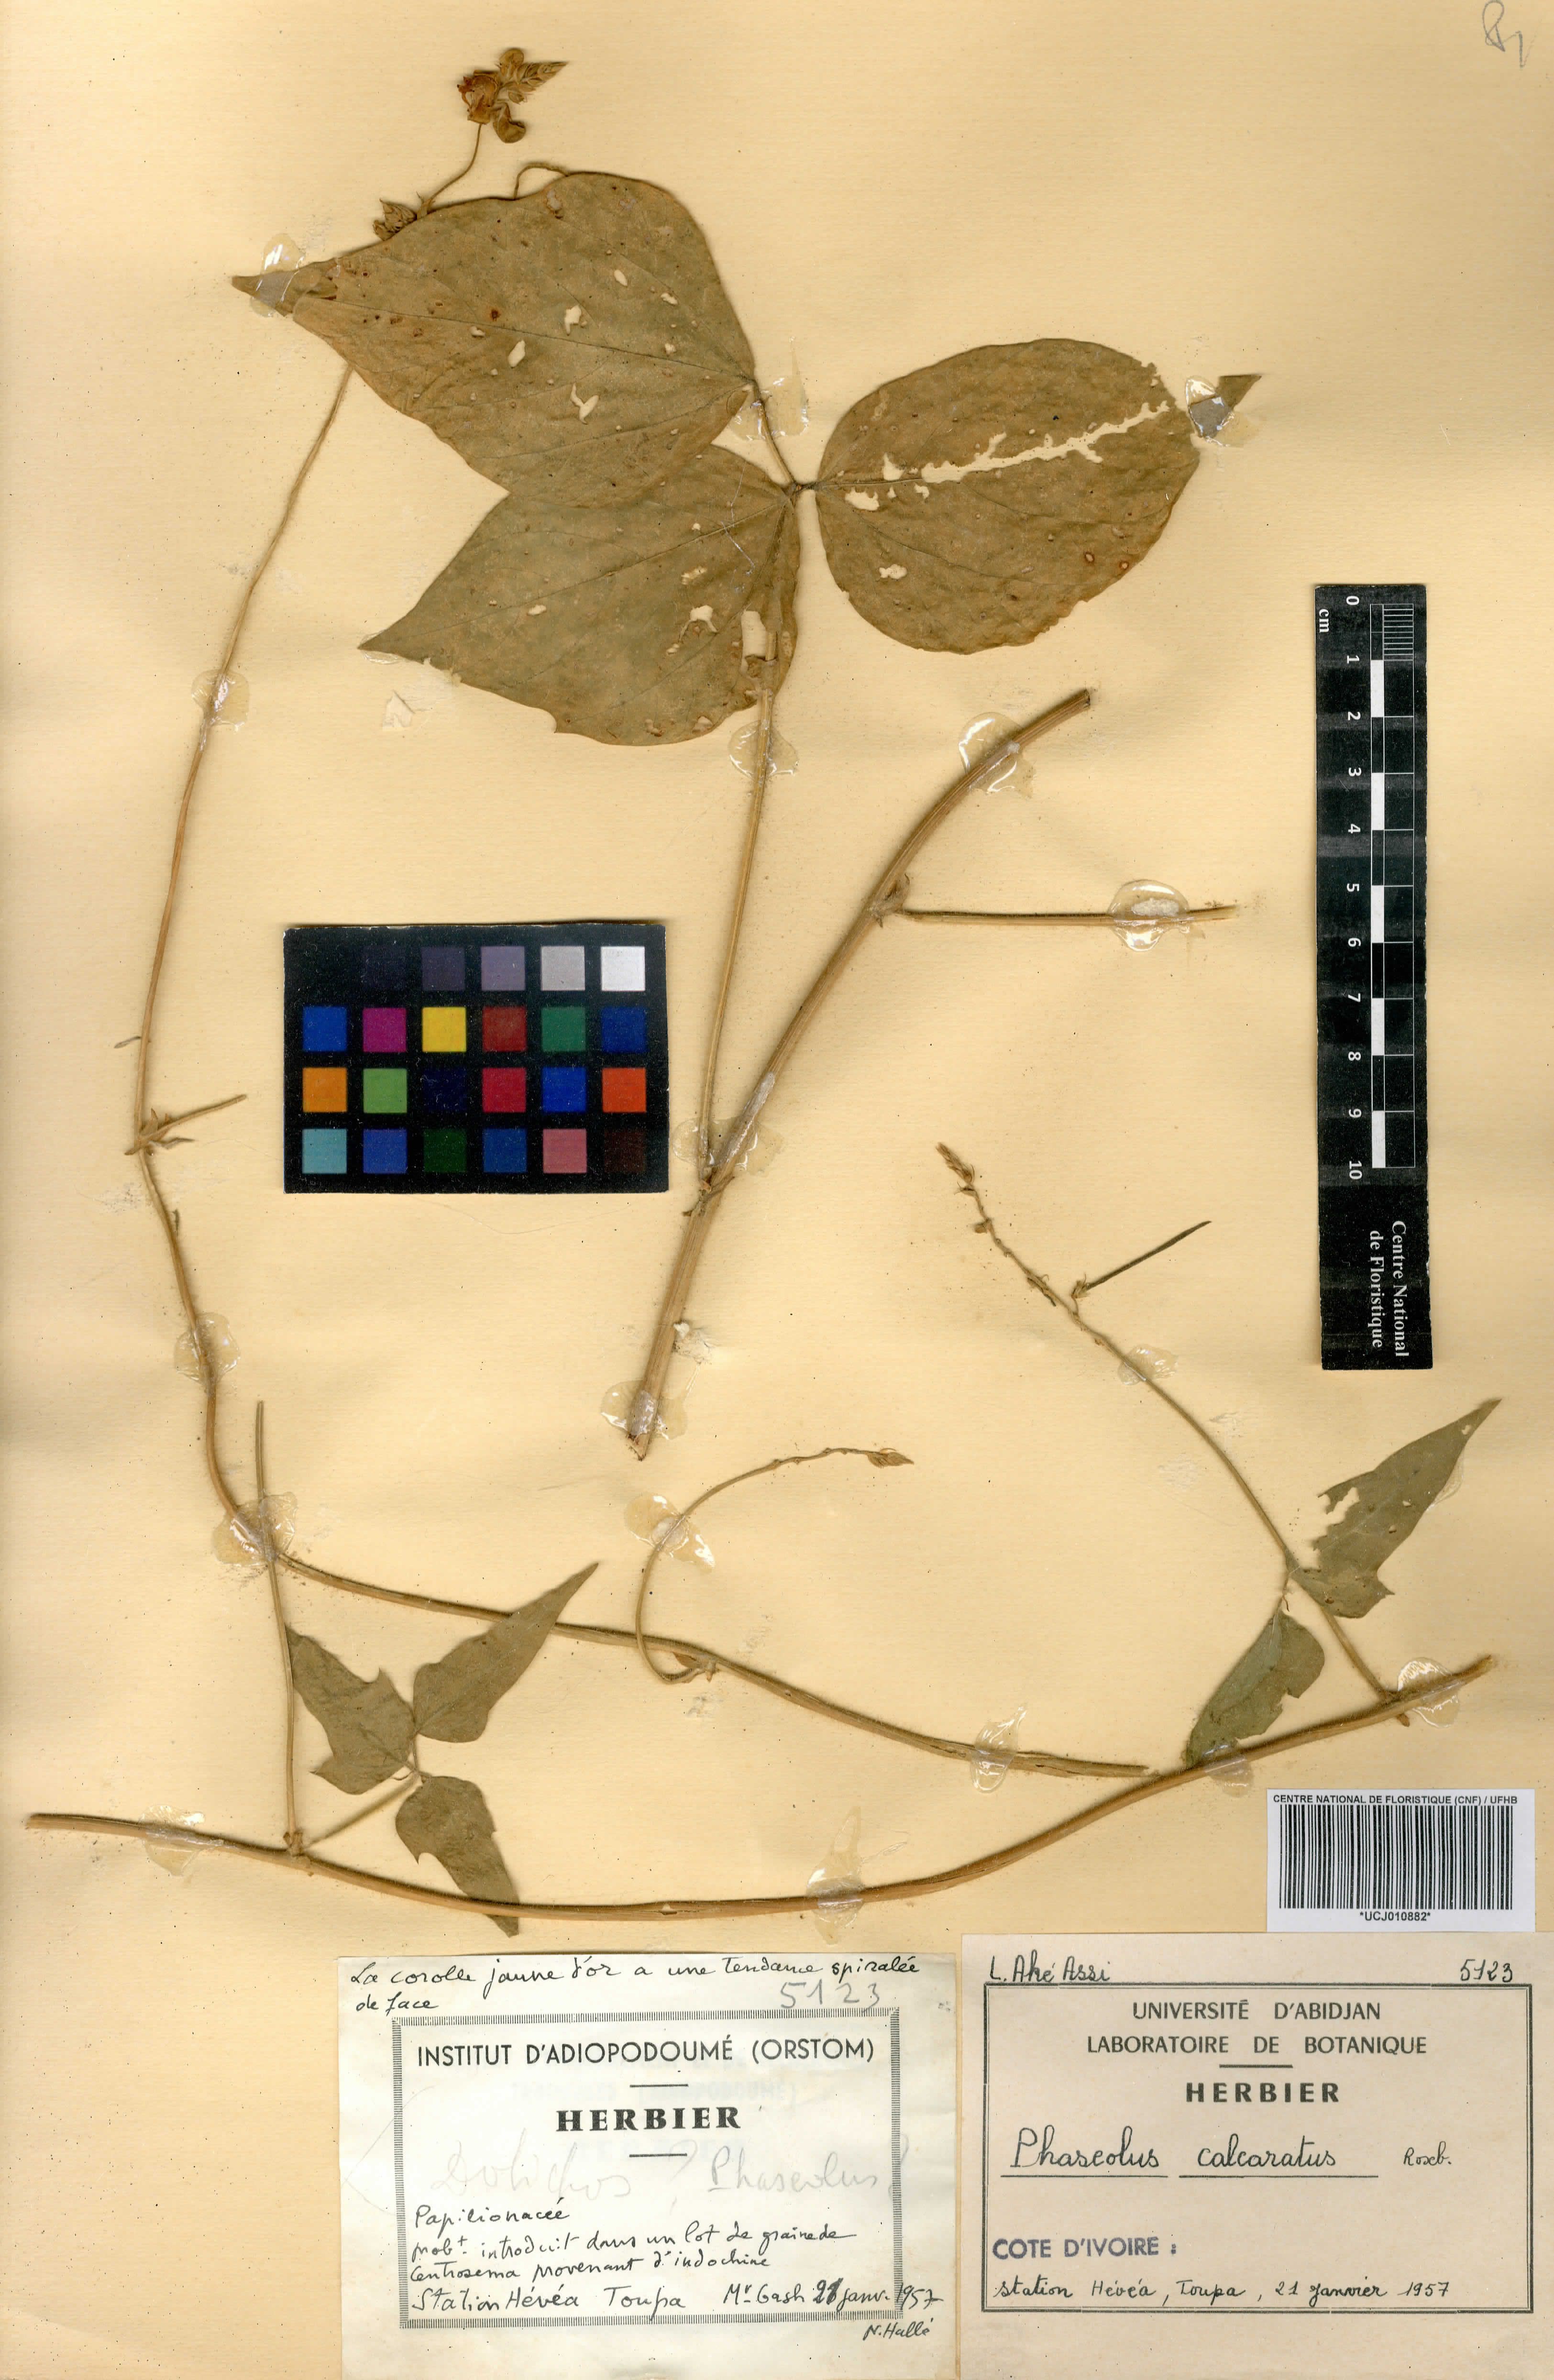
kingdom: Plantae
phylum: Tracheophyta
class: Magnoliopsida
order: Fabales
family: Fabaceae
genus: Vigna
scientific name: Vigna umbellata
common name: Oriental-bean
